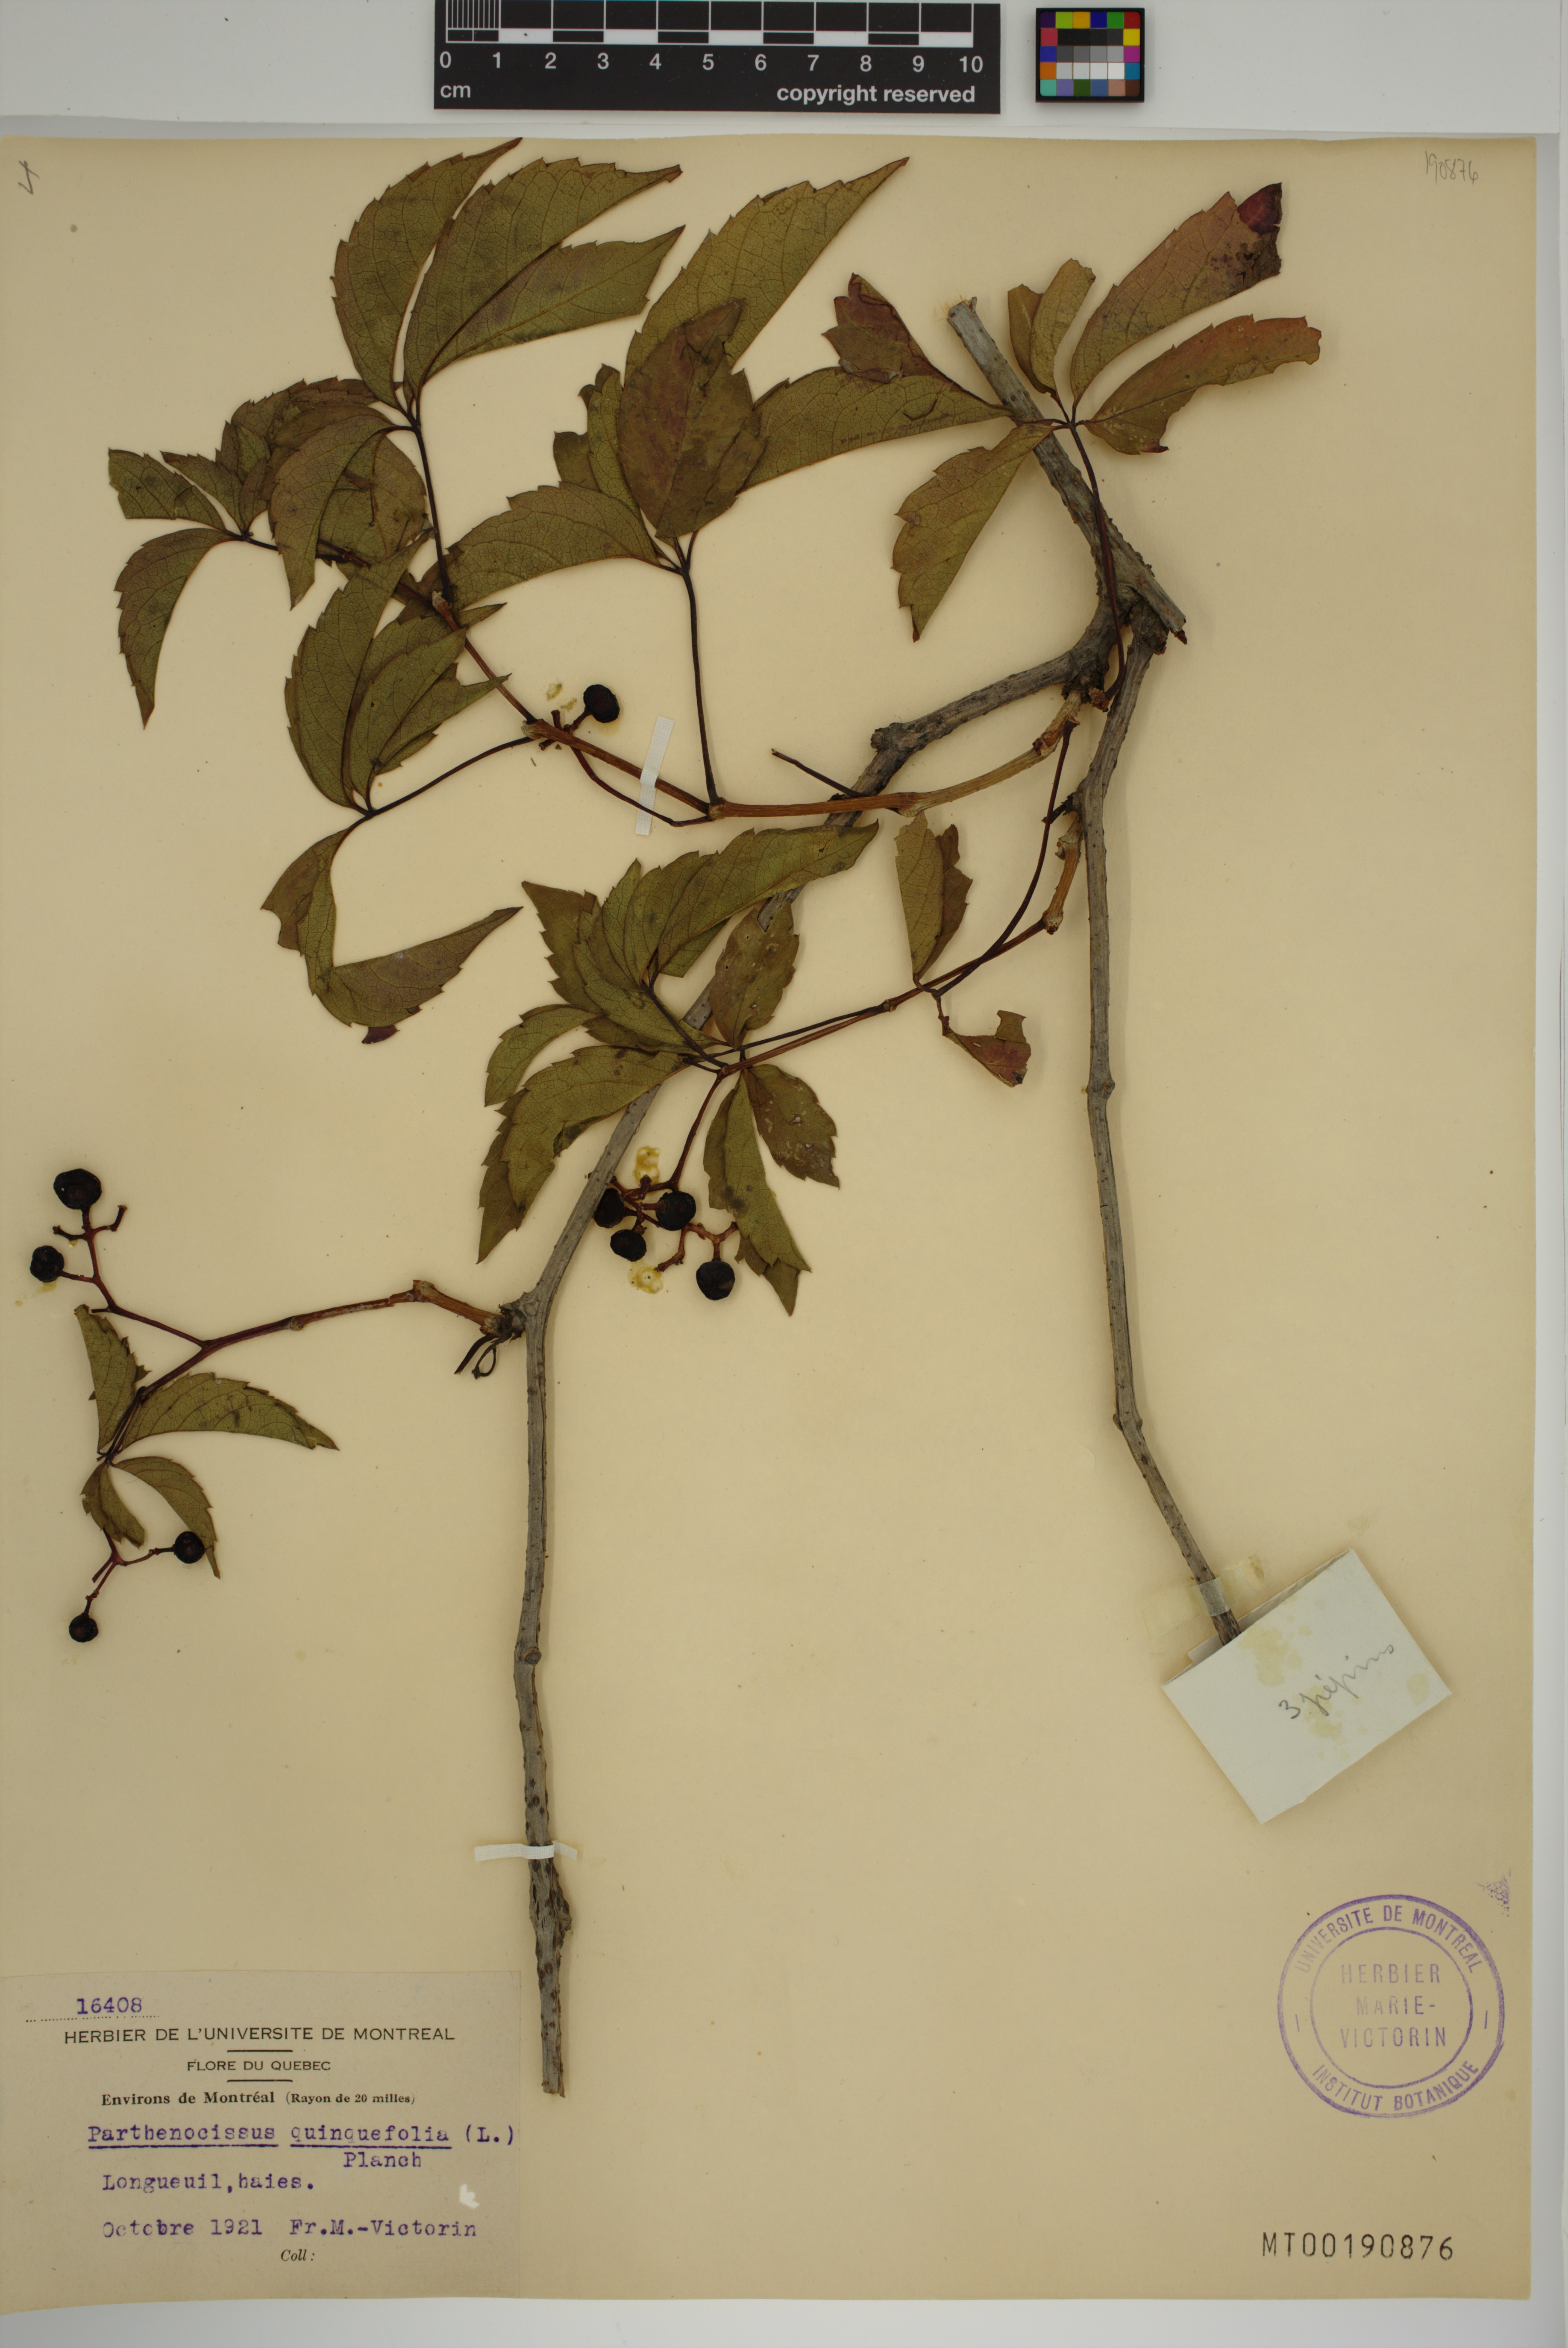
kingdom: Plantae
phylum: Tracheophyta
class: Magnoliopsida
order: Vitales
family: Vitaceae
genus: Parthenocissus
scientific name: Parthenocissus quinquefolia
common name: Virginia-creeper
